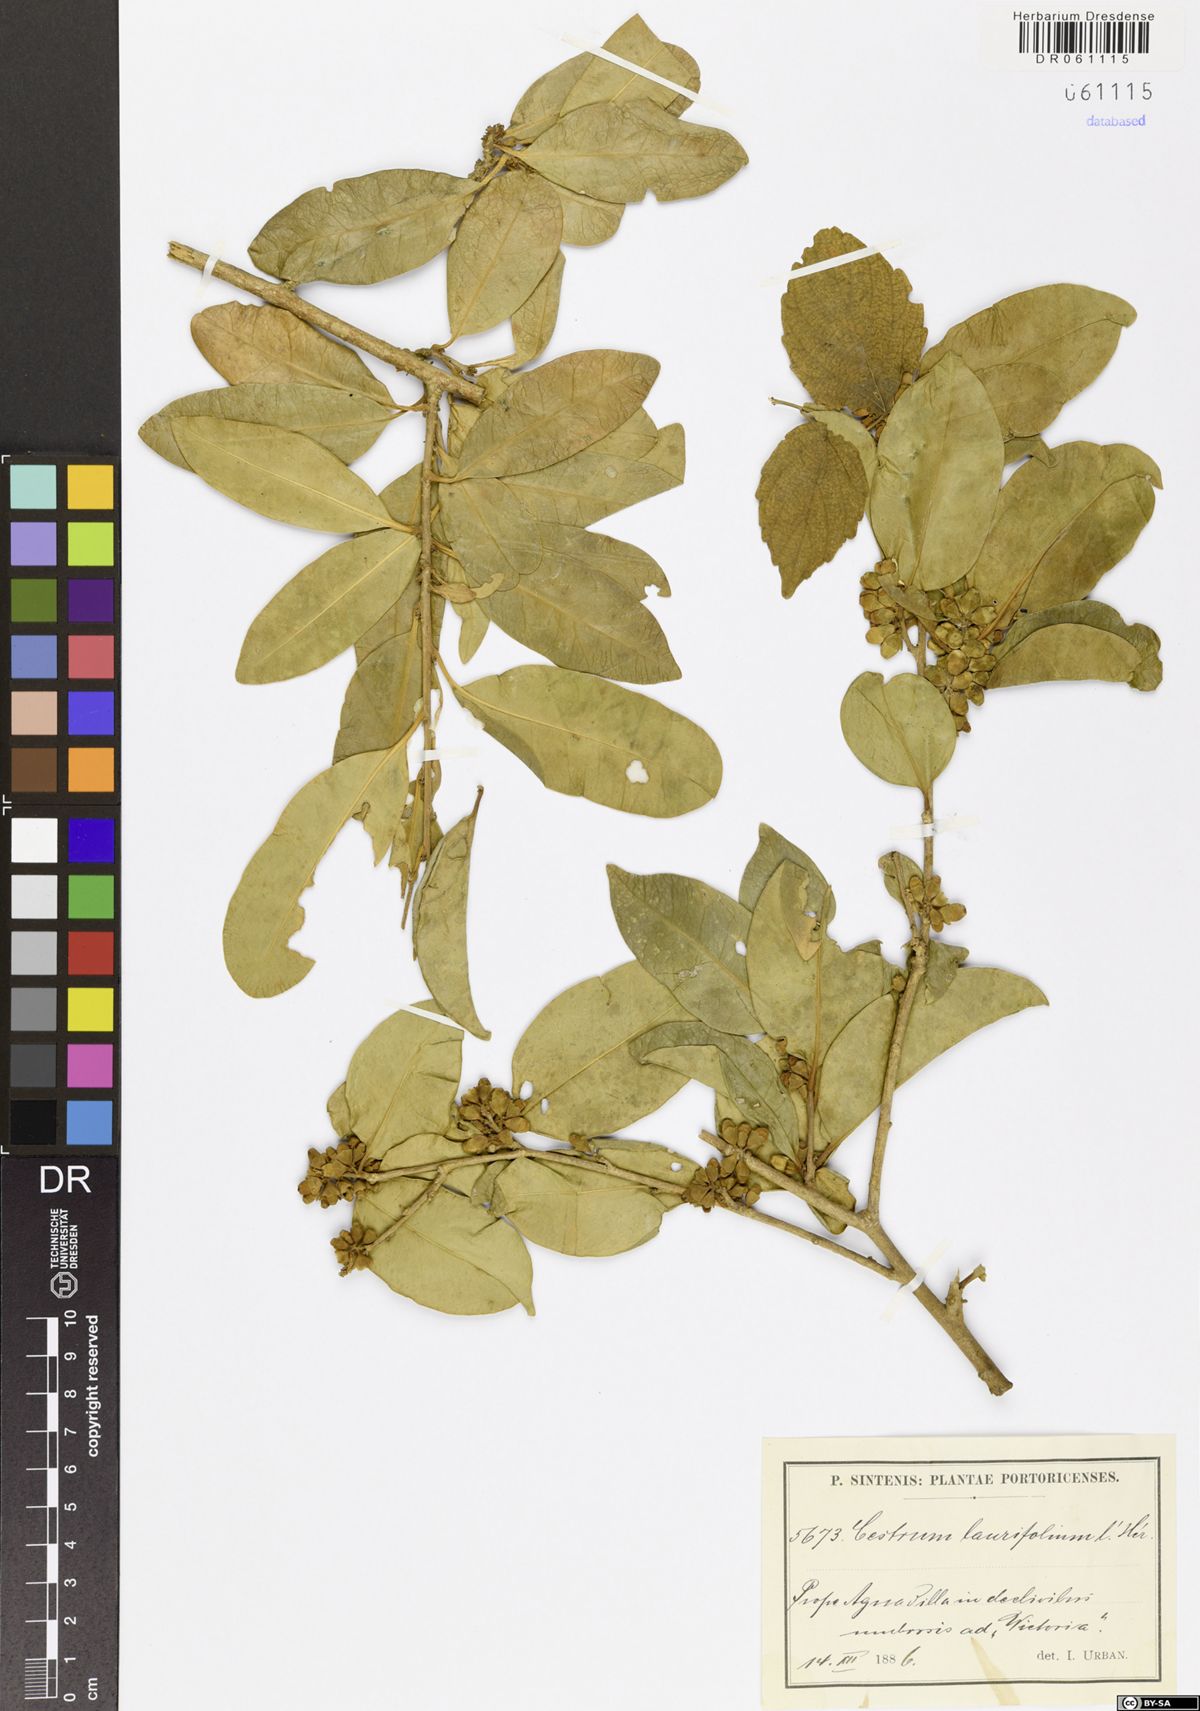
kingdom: Plantae
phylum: Tracheophyta
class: Magnoliopsida
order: Solanales
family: Solanaceae
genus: Cestrum
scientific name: Cestrum
